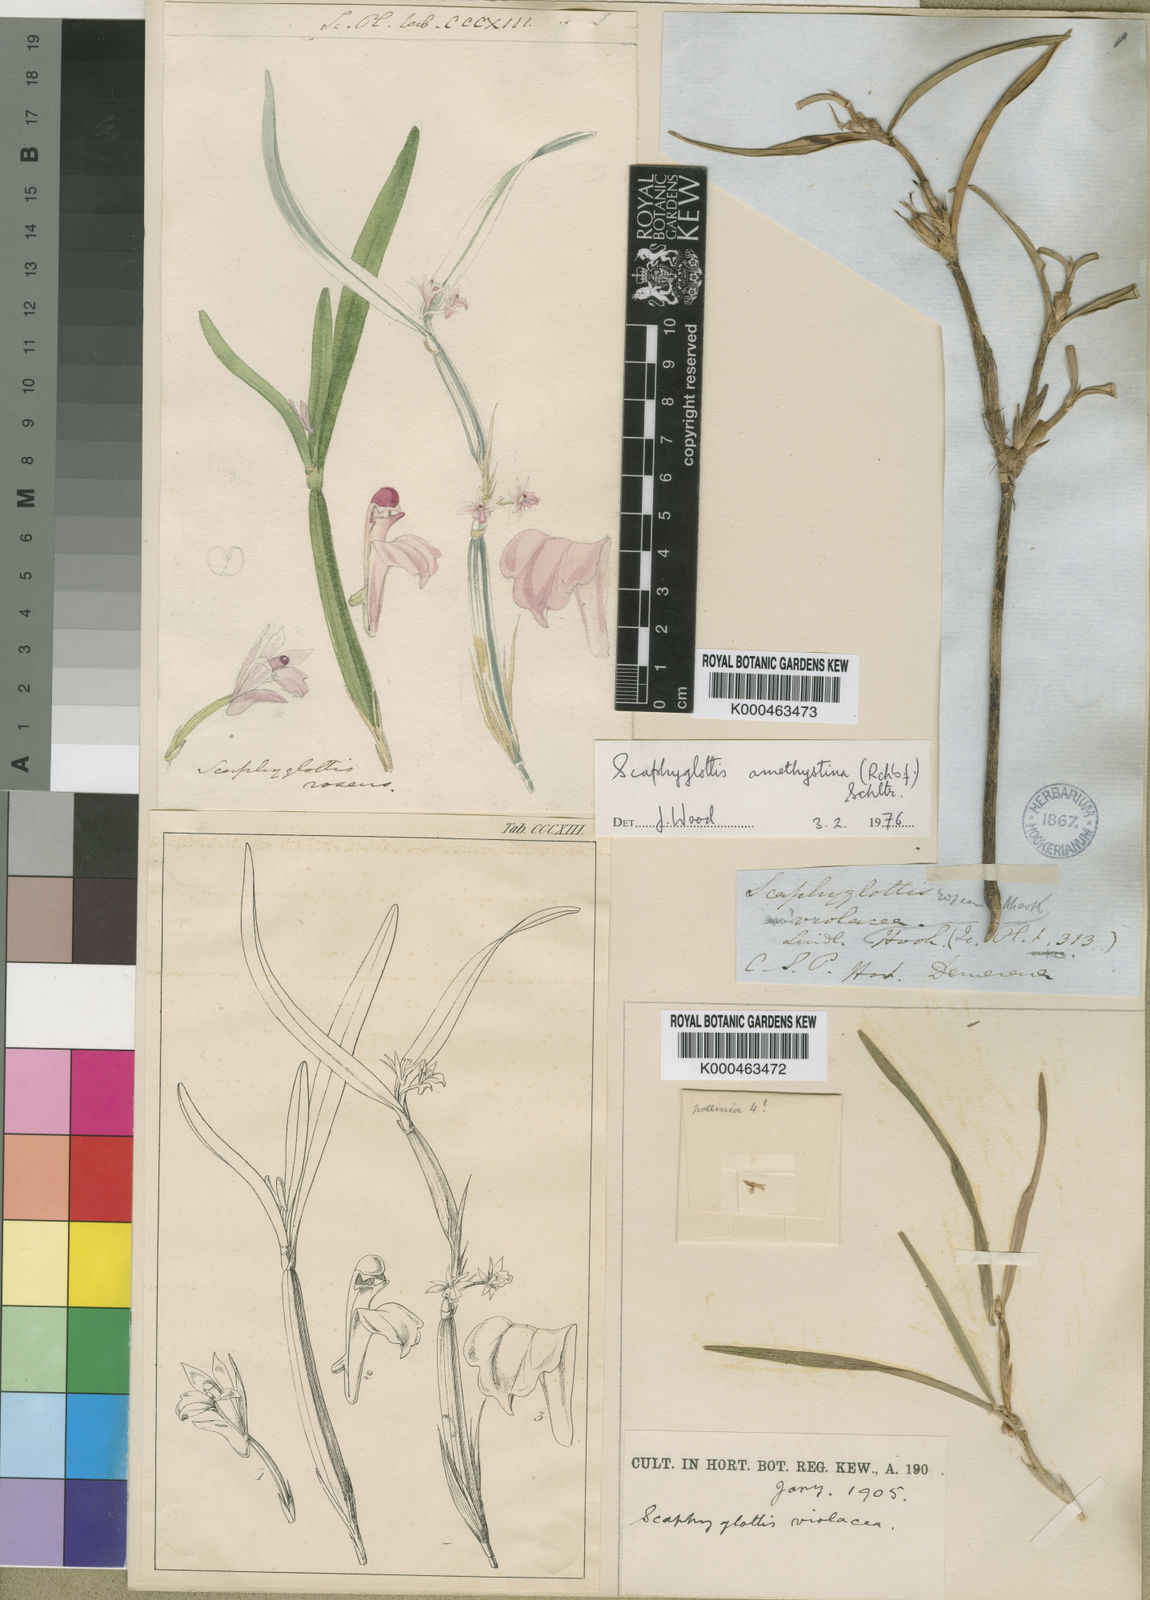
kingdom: Plantae
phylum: Tracheophyta
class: Liliopsida
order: Asparagales
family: Orchidaceae
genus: Scaphyglottis
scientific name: Scaphyglottis graminifolia
